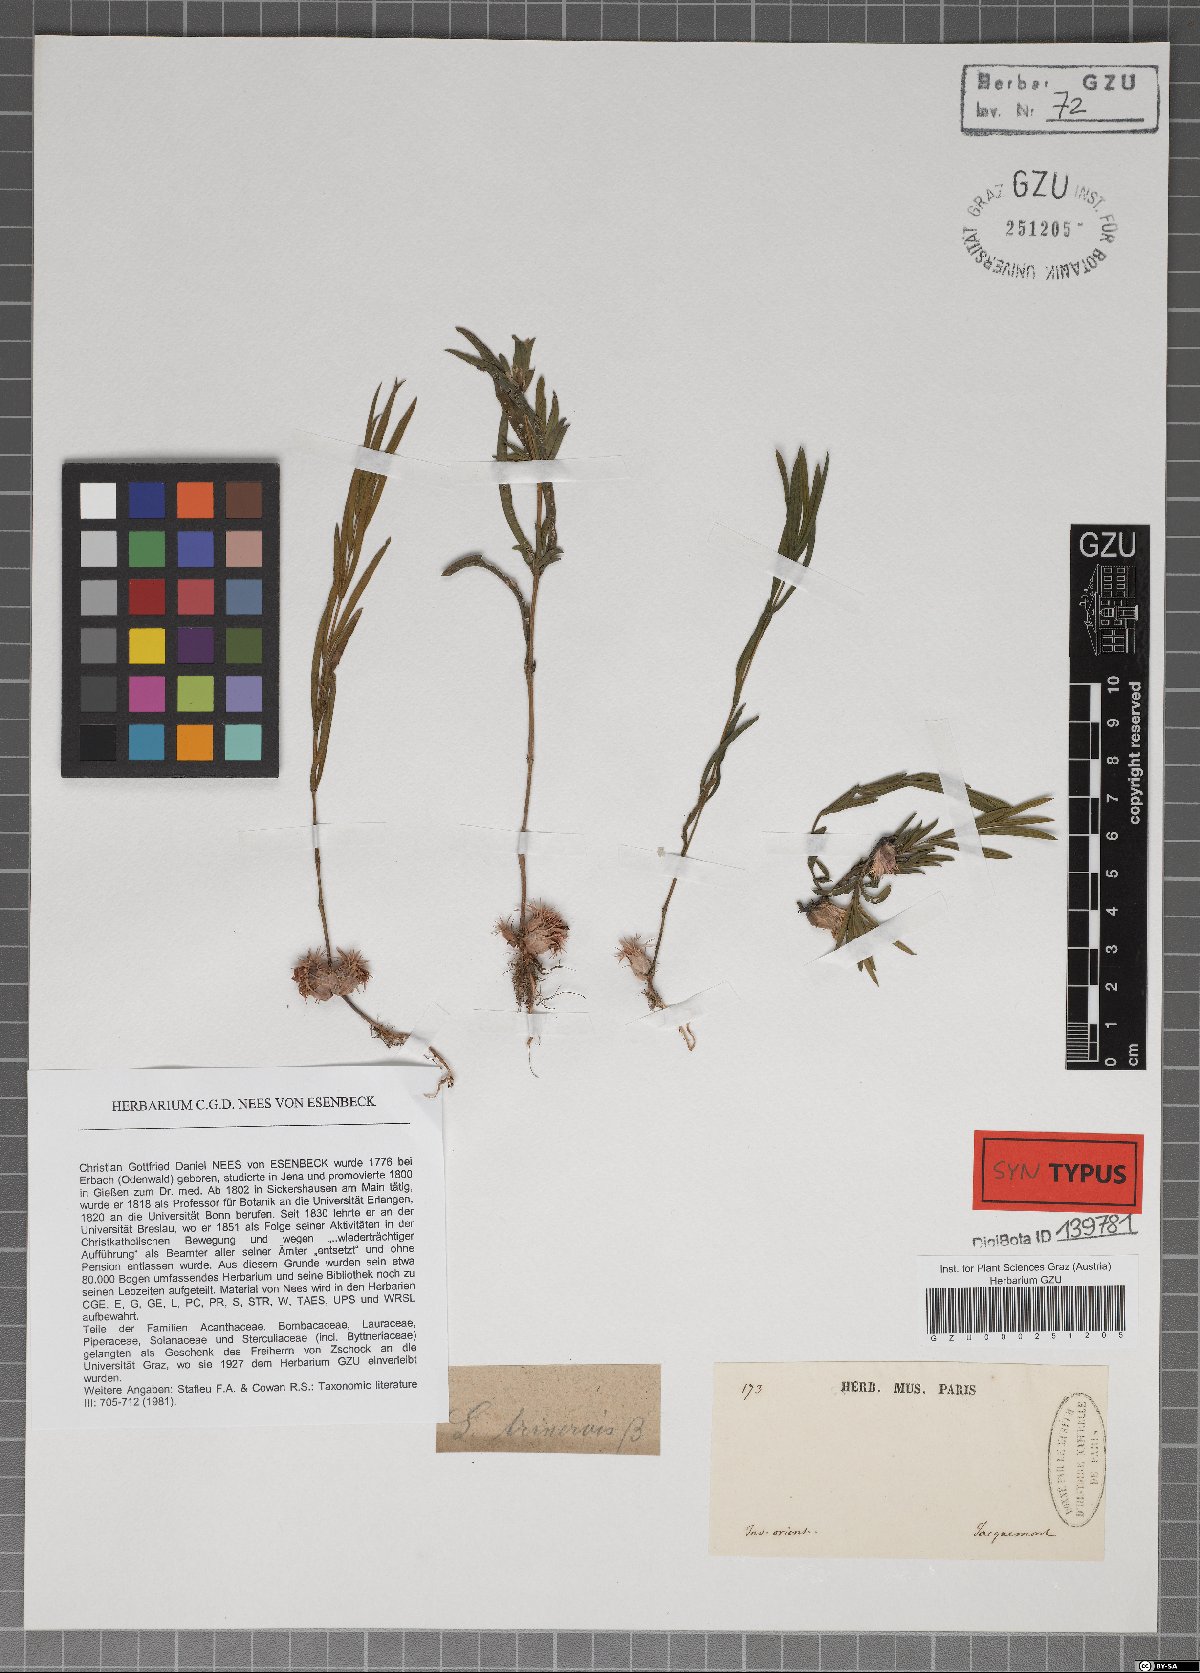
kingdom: Plantae
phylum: Tracheophyta
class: Magnoliopsida
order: Lamiales
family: Acanthaceae
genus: Lepidagathis
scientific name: Lepidagathis trinervis
